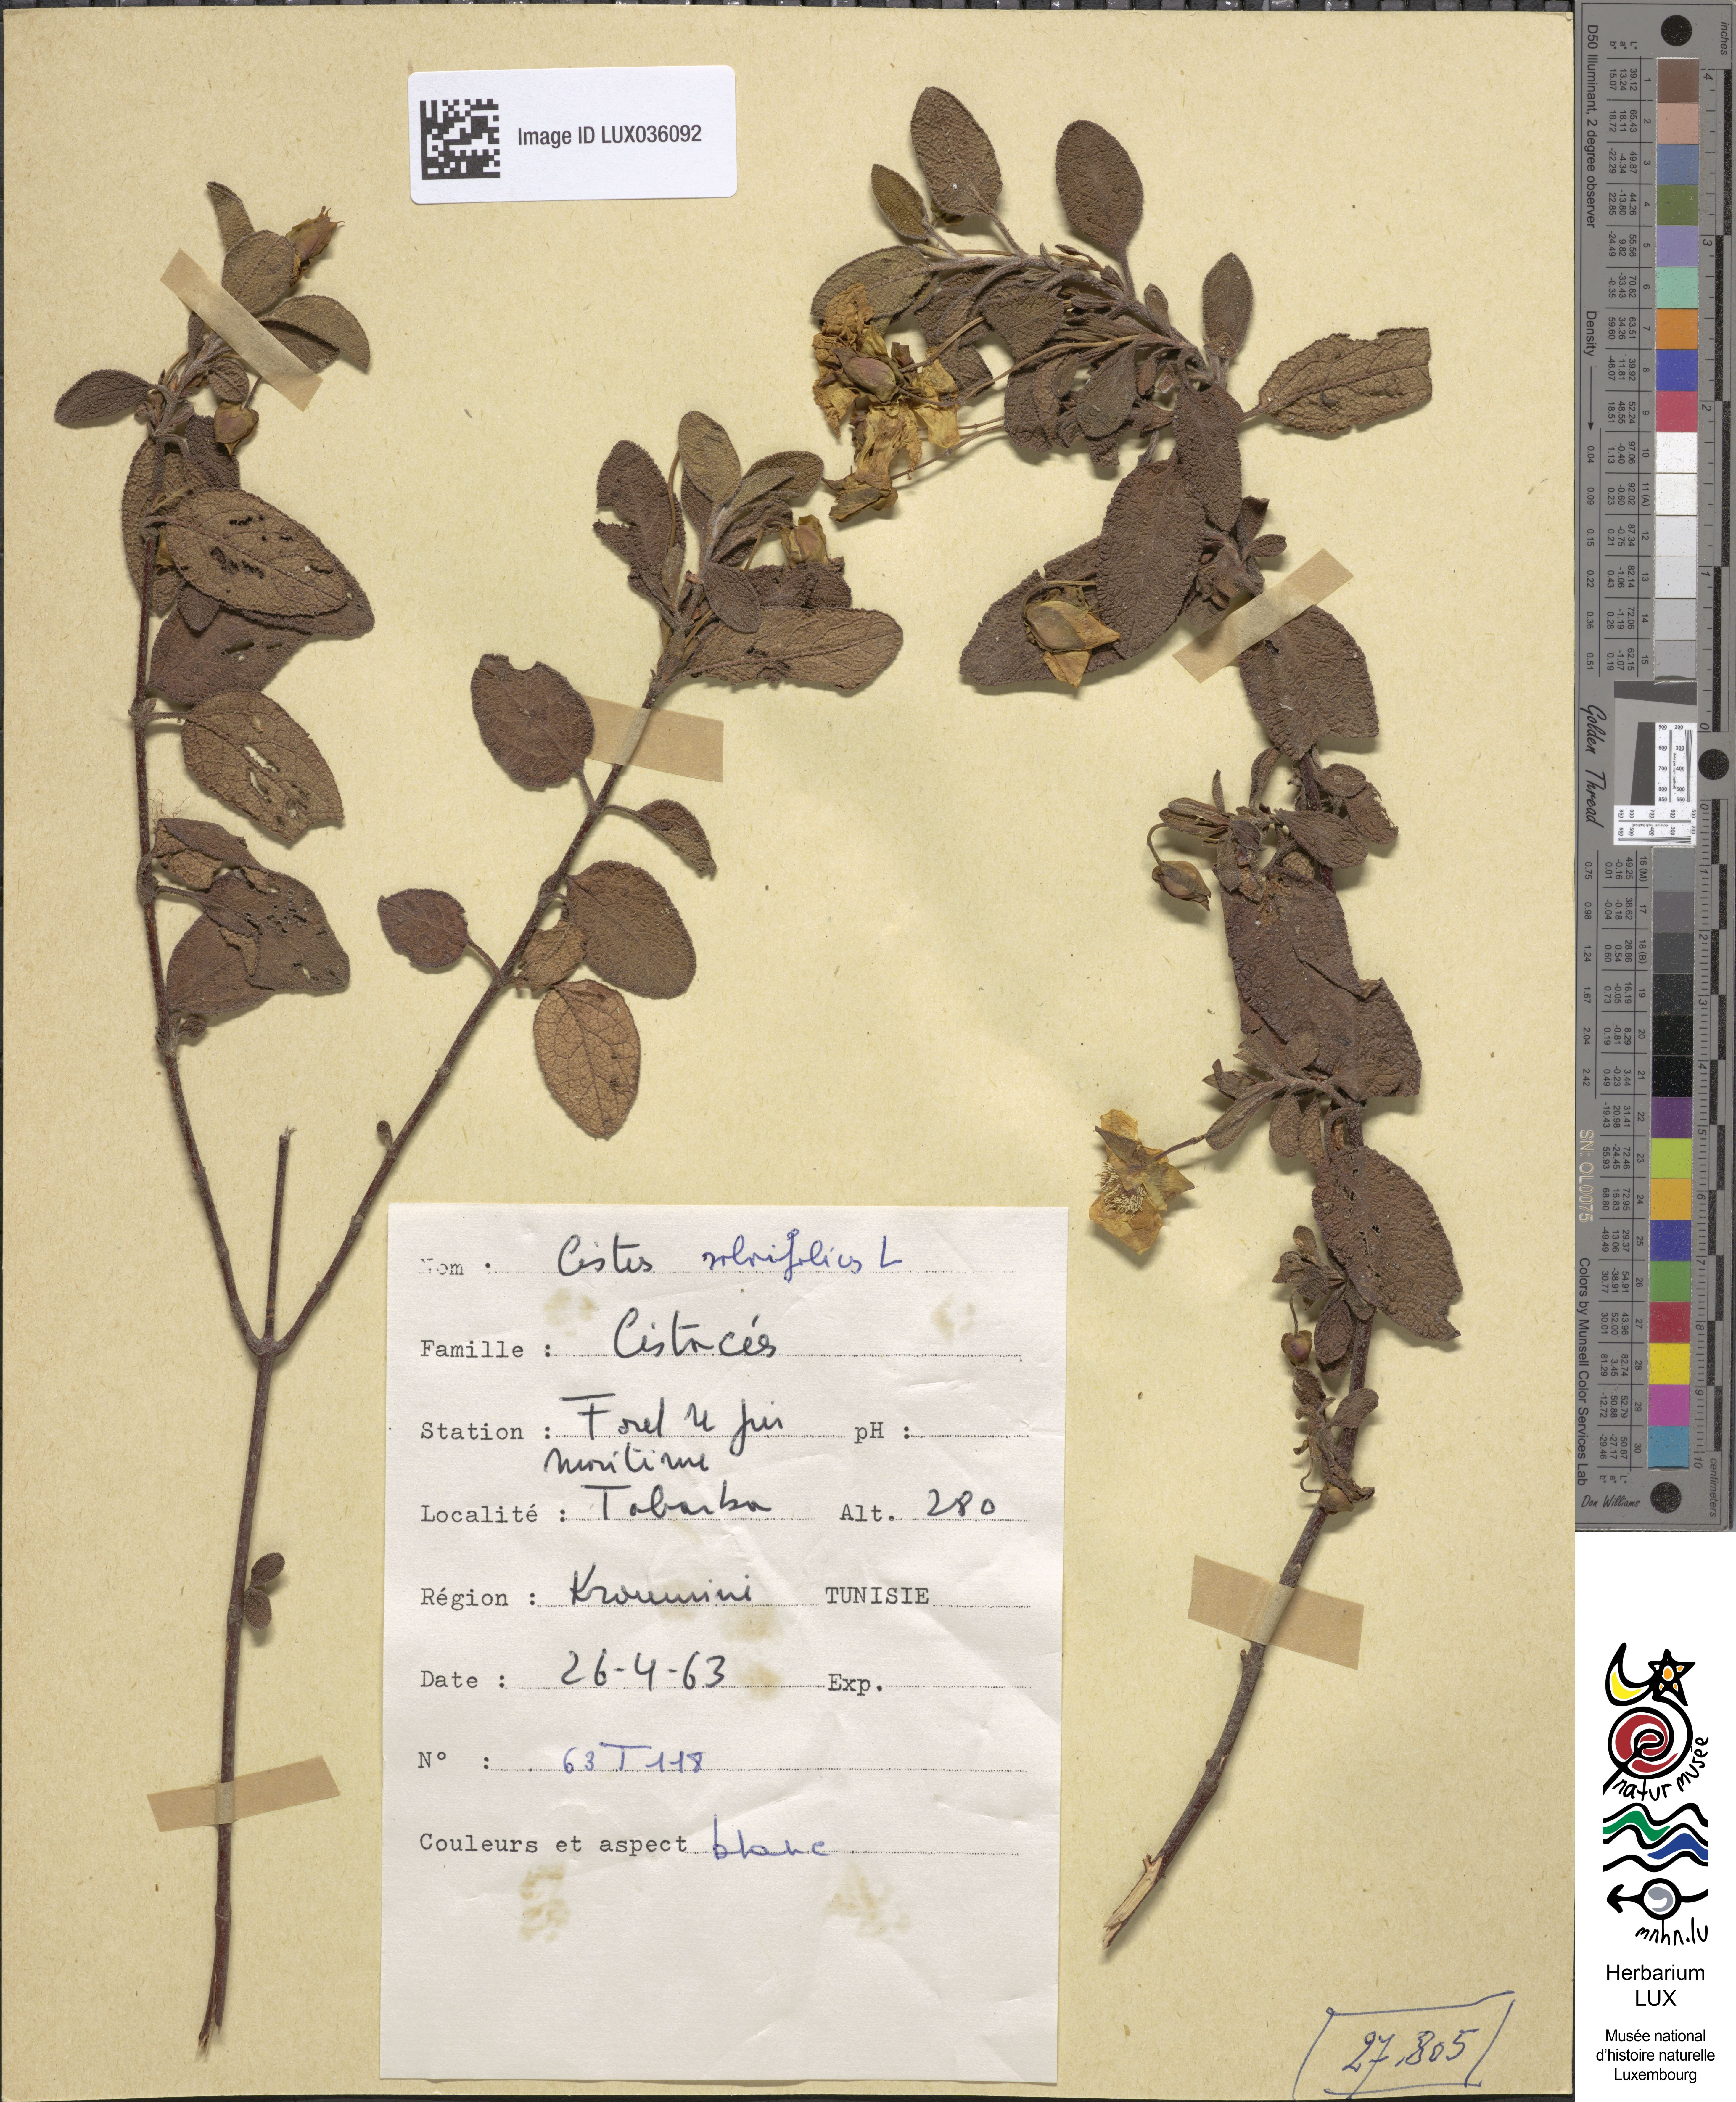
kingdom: Plantae
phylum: Tracheophyta
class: Magnoliopsida
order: Malvales
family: Cistaceae
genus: Cistus
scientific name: Cistus salviifolius
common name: Salvia cistus
